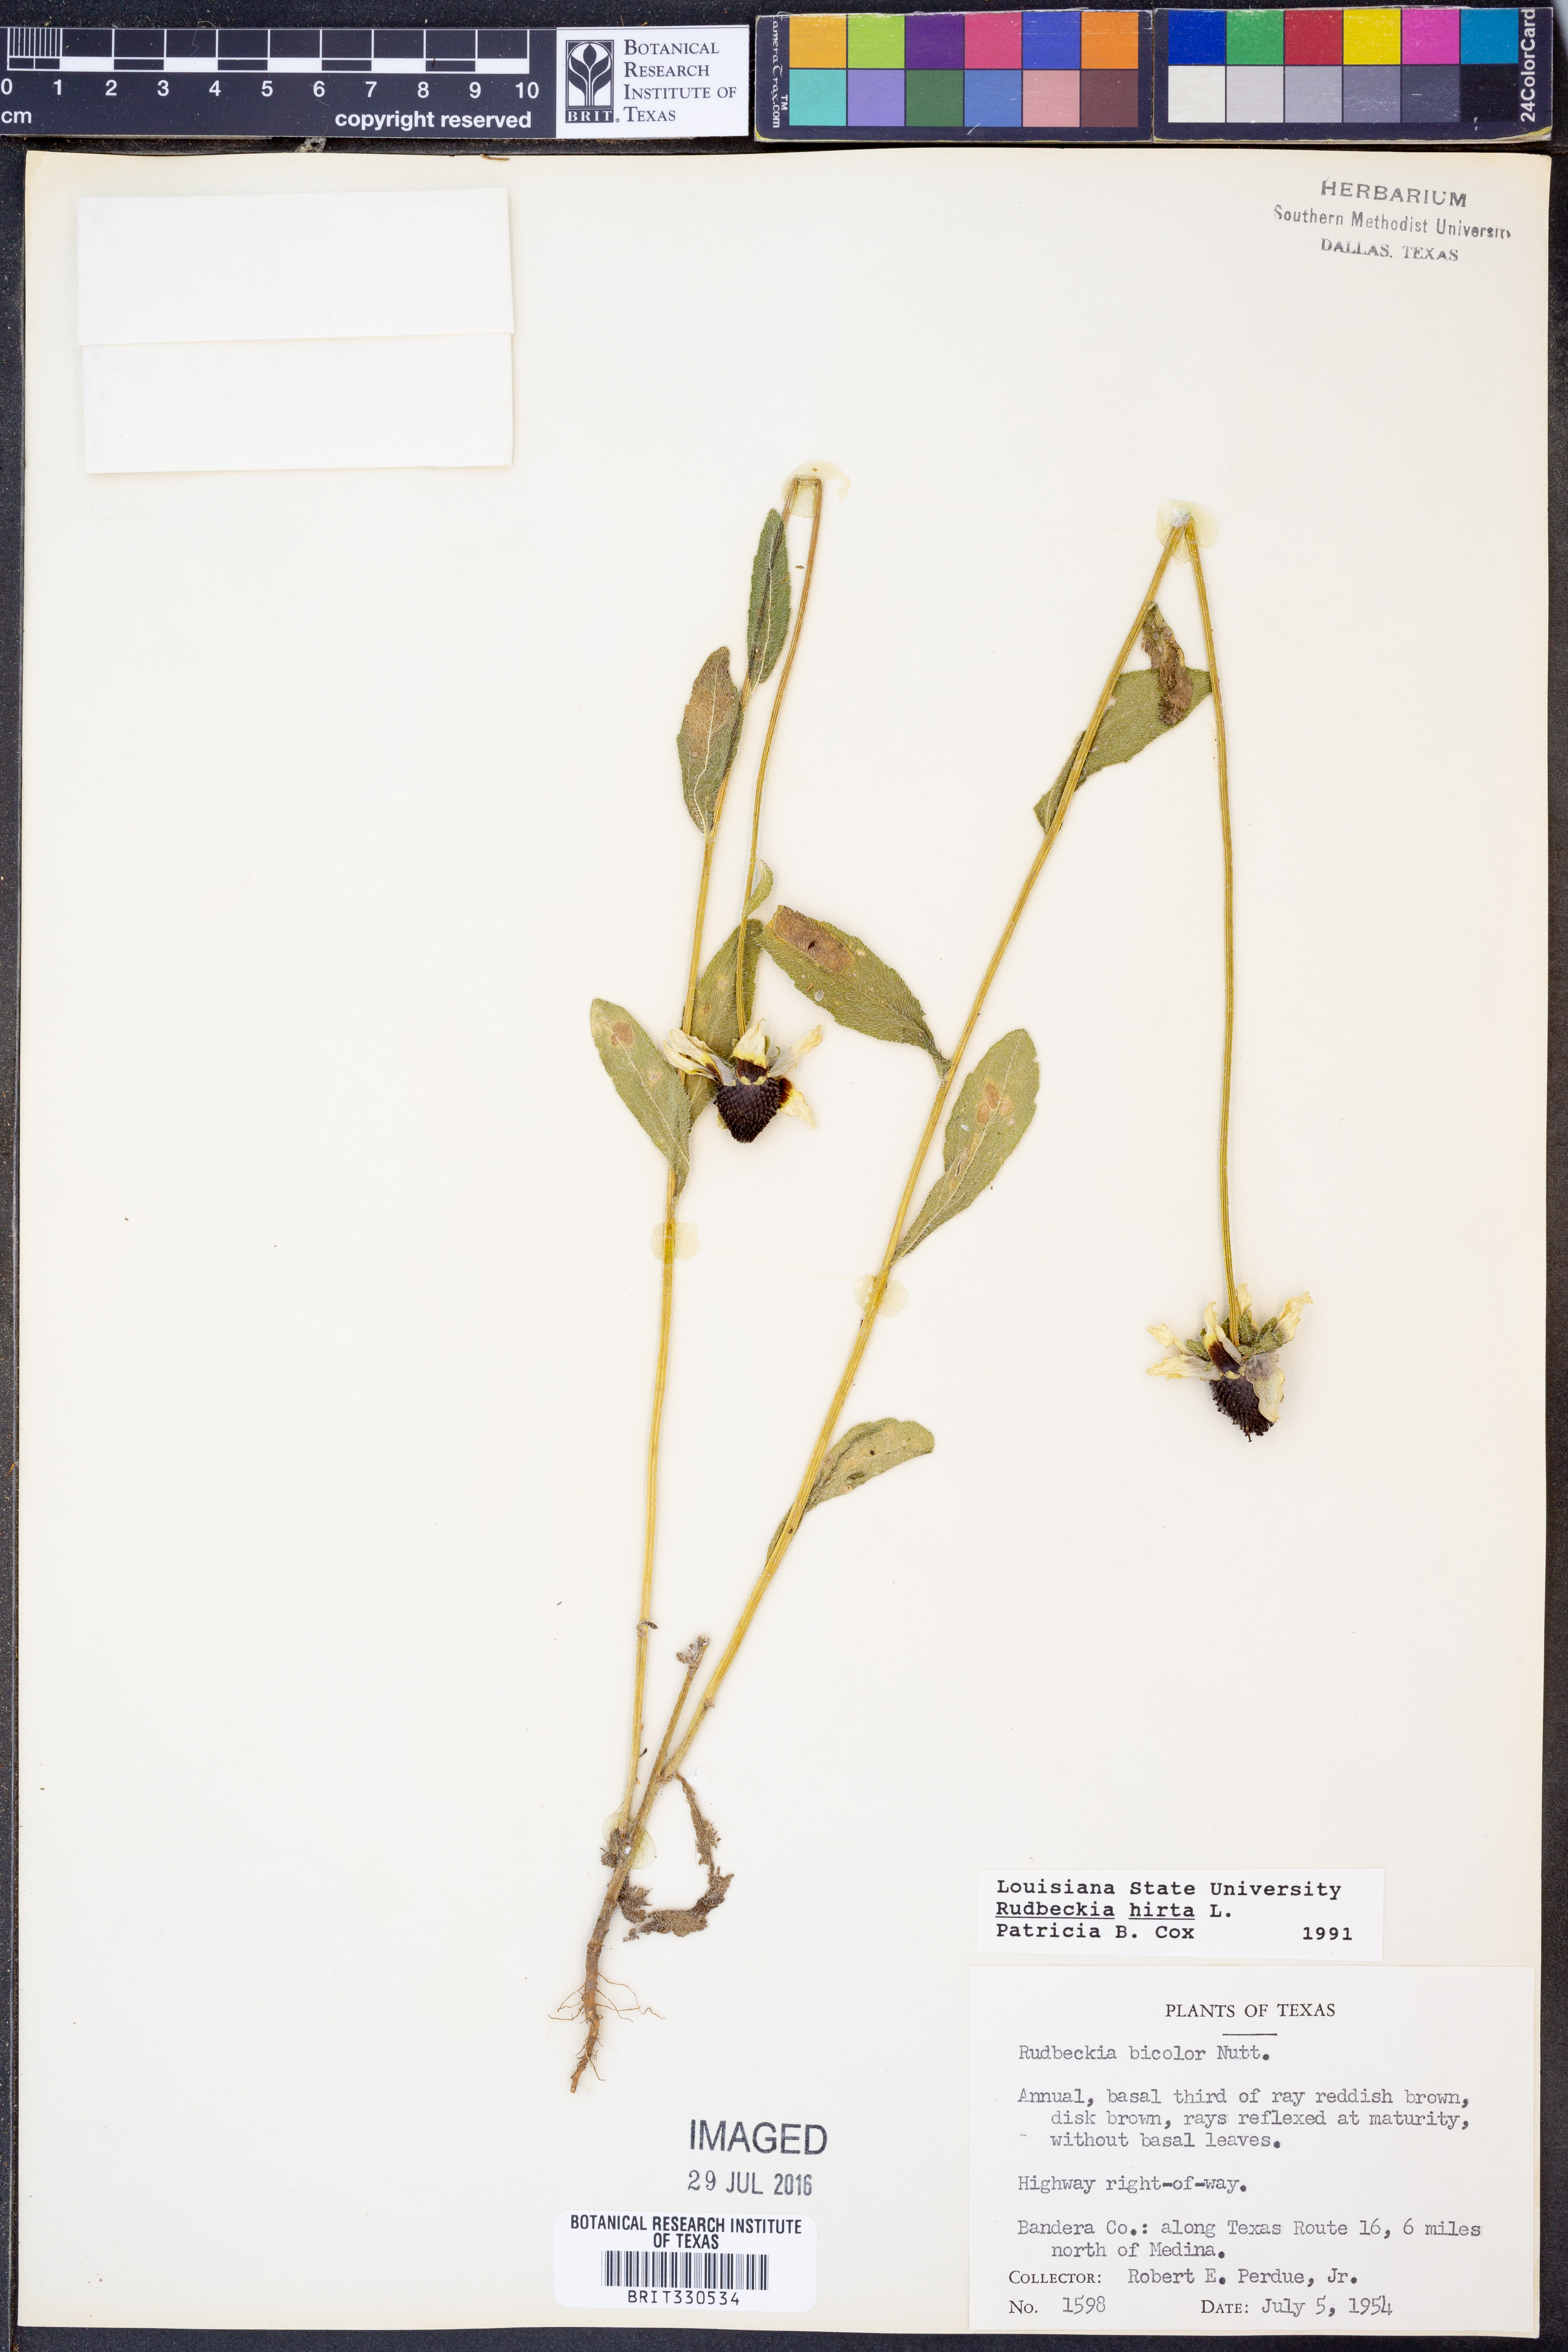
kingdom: Plantae
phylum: Tracheophyta
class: Magnoliopsida
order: Asterales
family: Asteraceae
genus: Rudbeckia
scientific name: Rudbeckia hirta
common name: Black-eyed-susan
